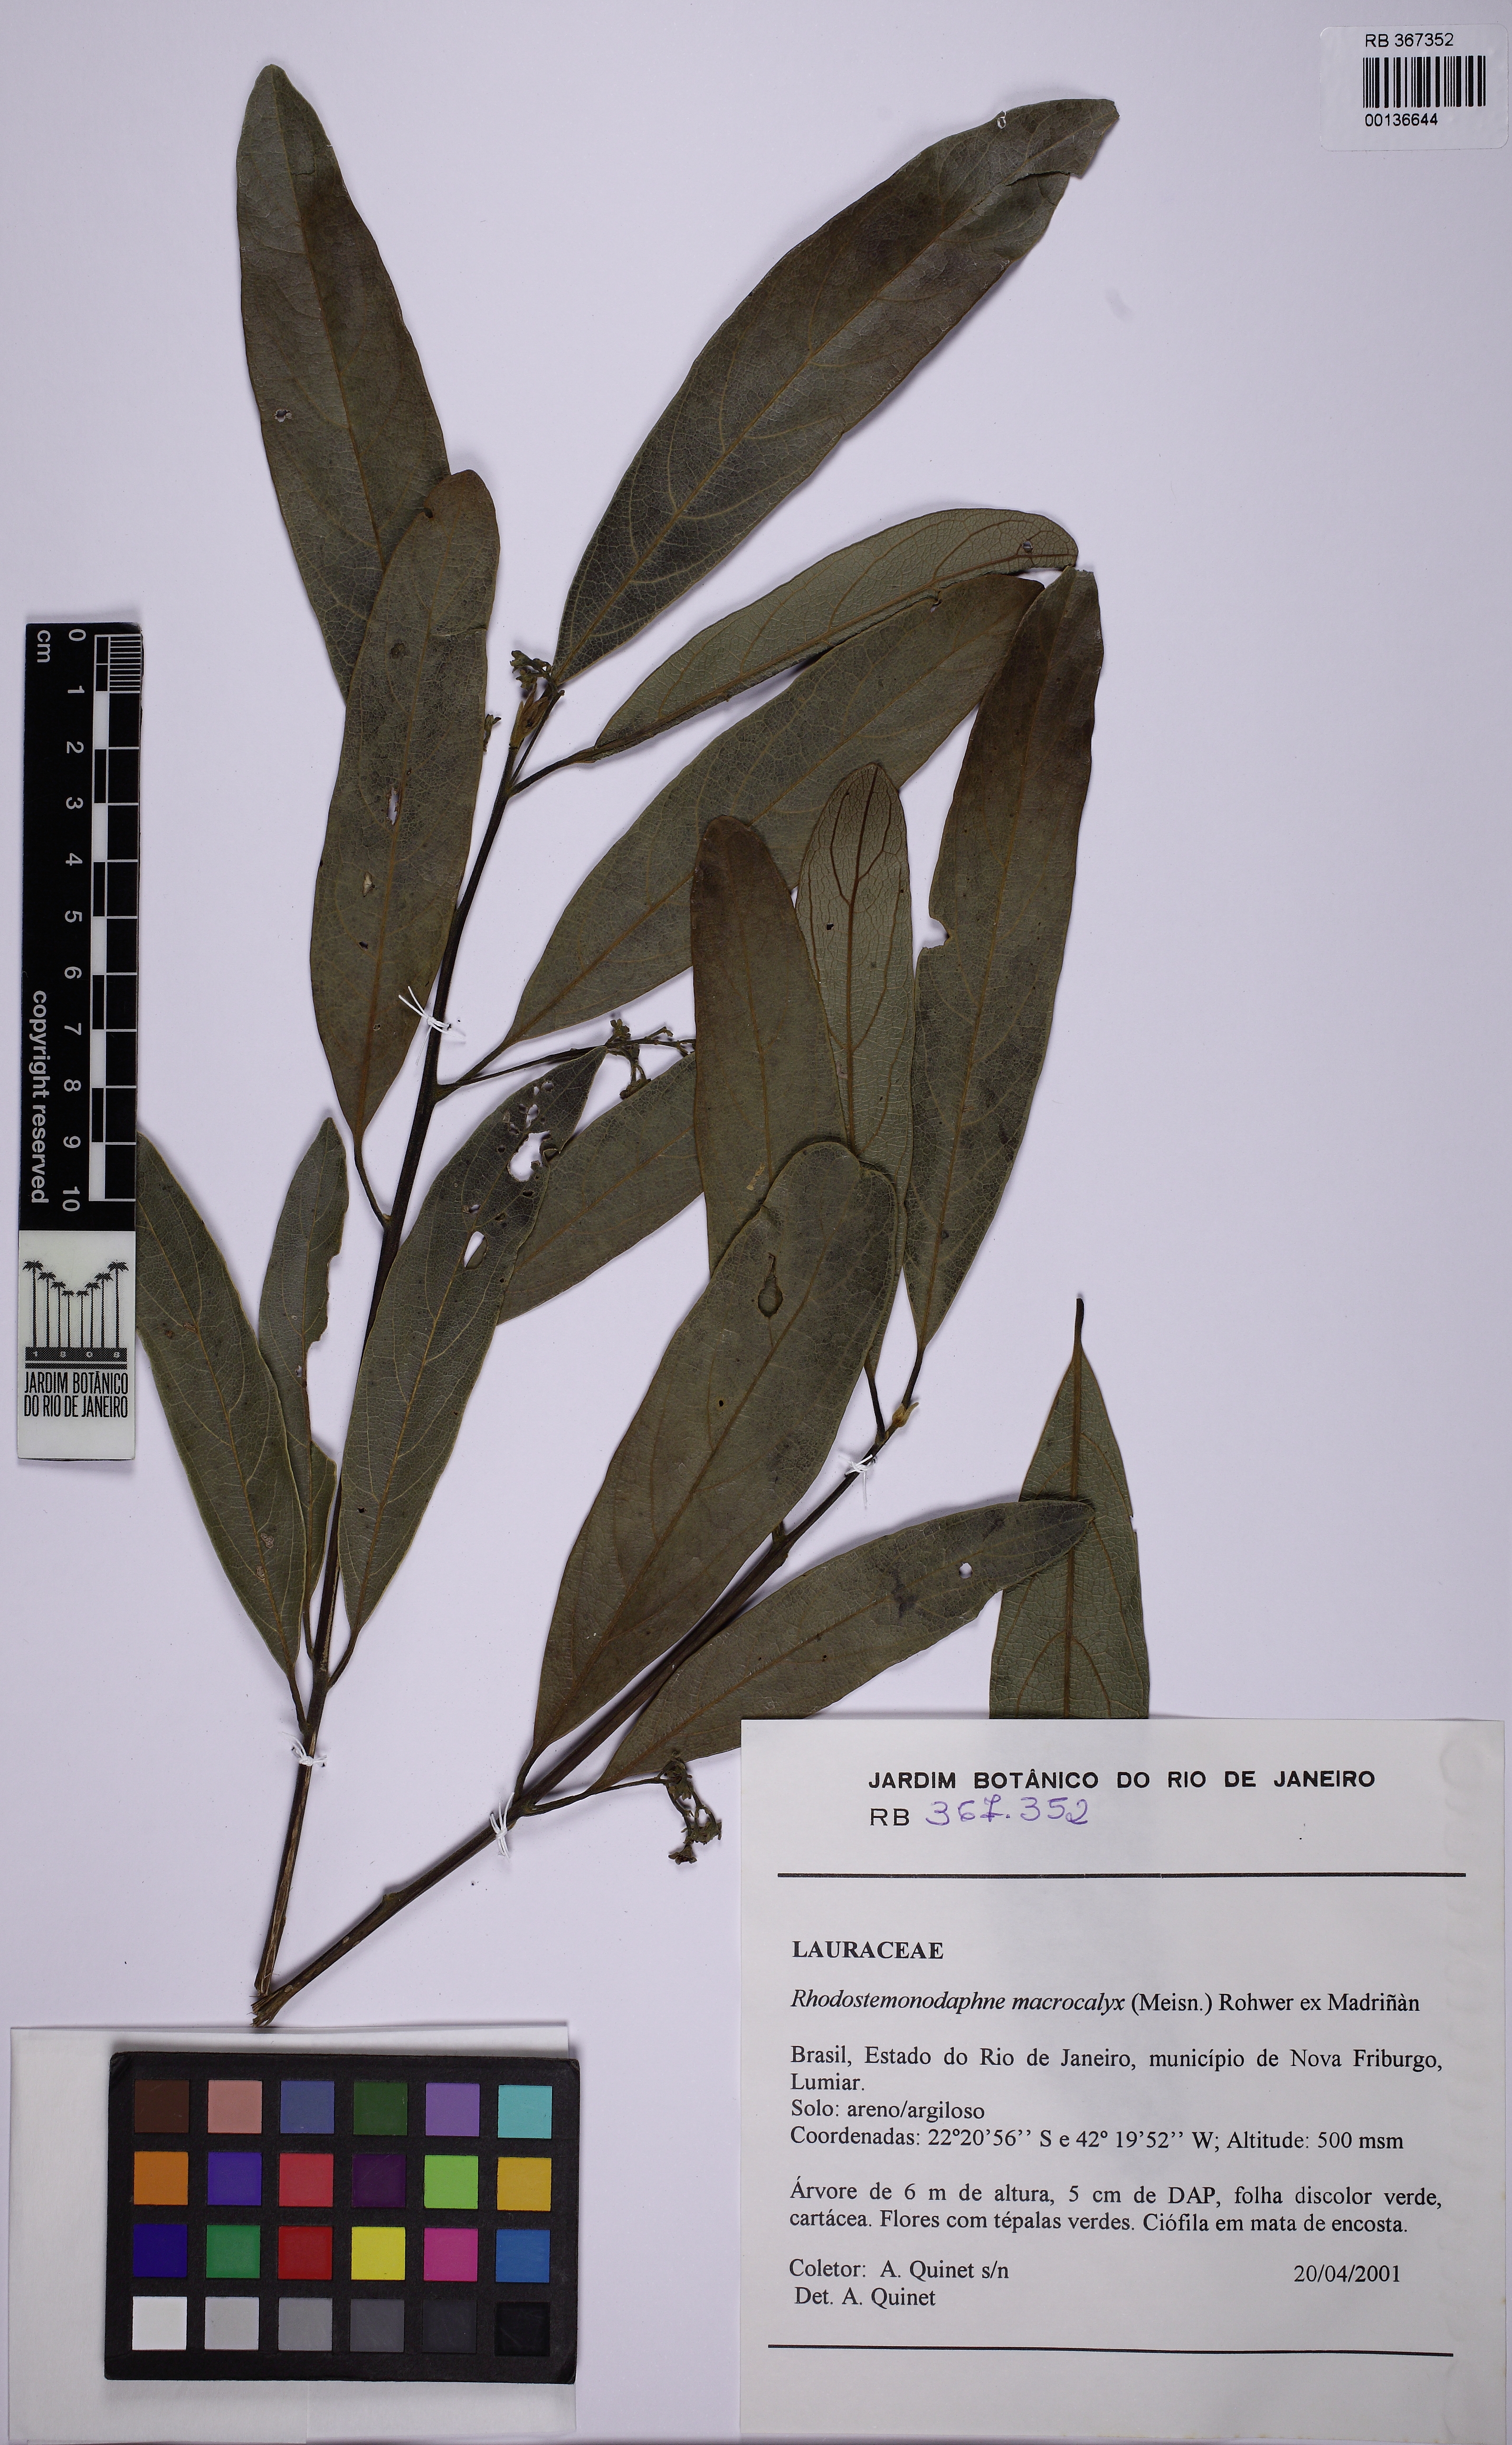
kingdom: Plantae
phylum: Tracheophyta
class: Magnoliopsida
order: Laurales
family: Lauraceae
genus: Rhodostemonodaphne
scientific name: Rhodostemonodaphne
